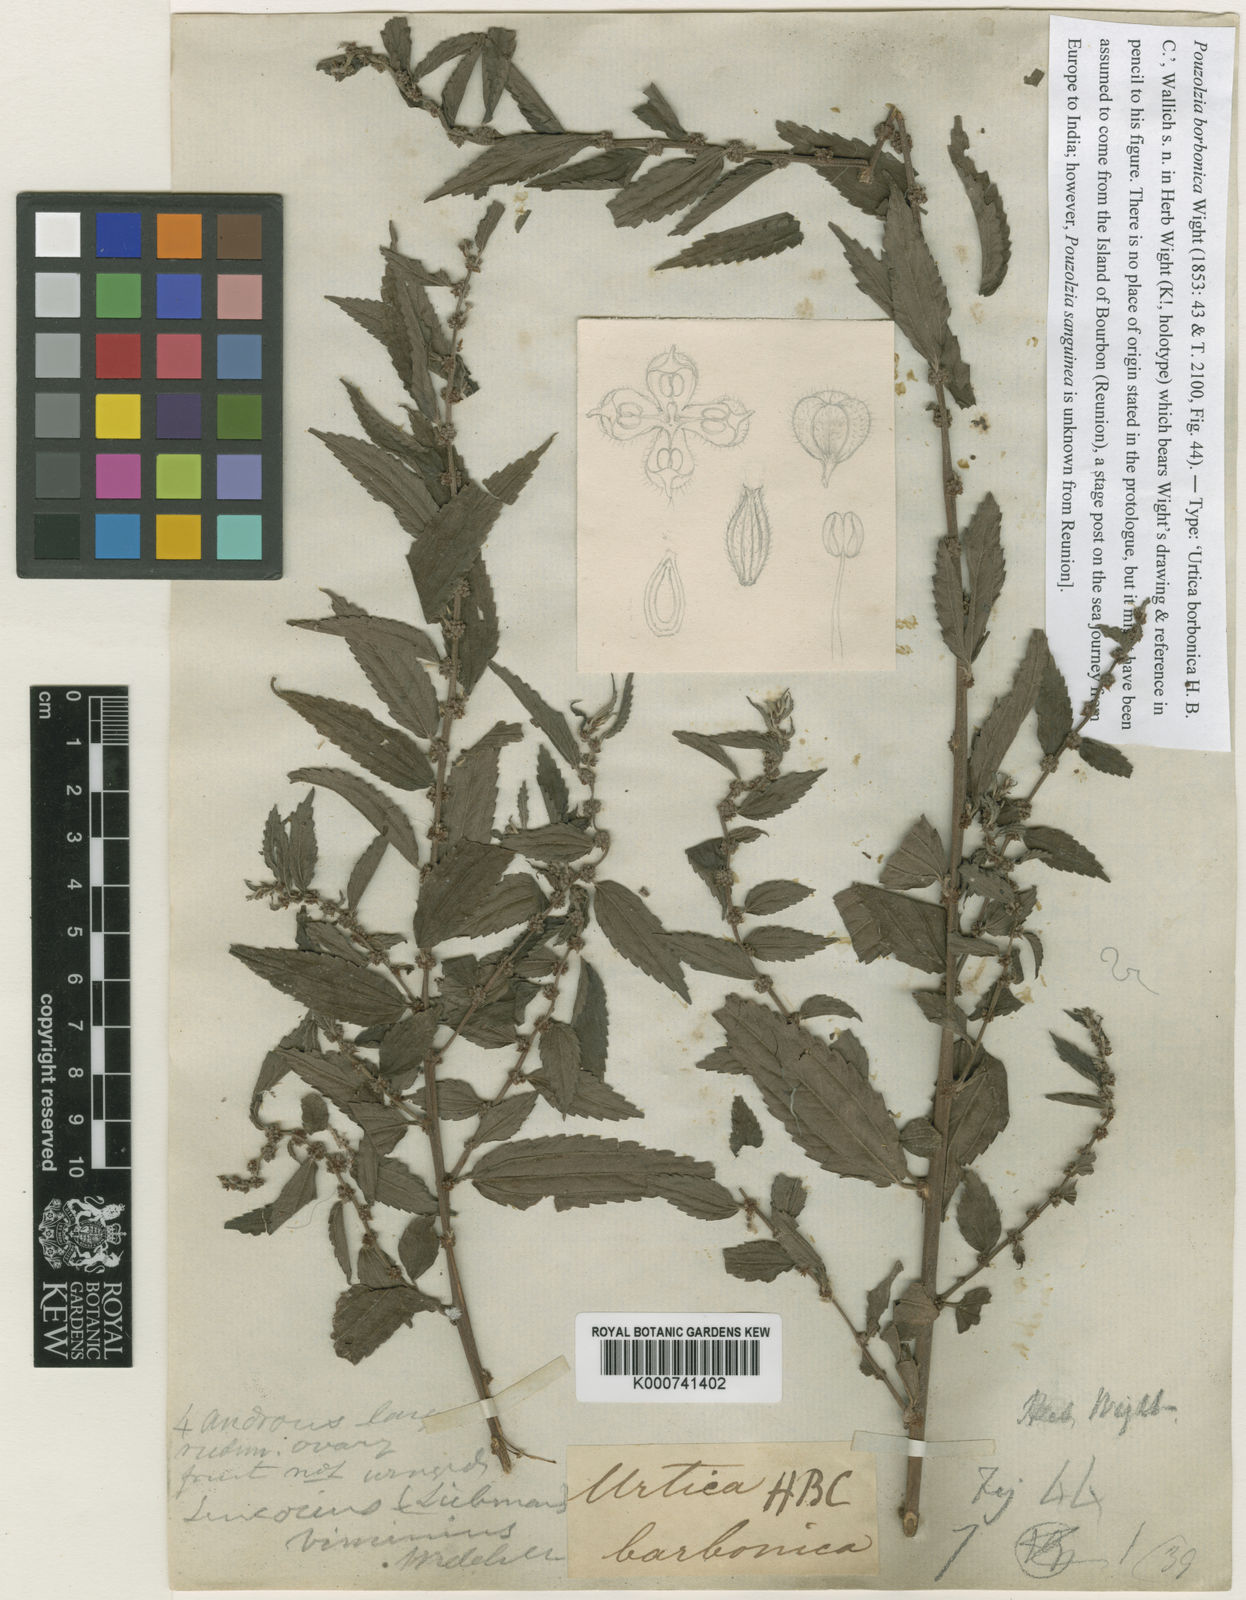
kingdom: Plantae
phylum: Tracheophyta
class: Magnoliopsida
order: Rosales
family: Urticaceae
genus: Pouzolzia
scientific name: Pouzolzia sanguinea
